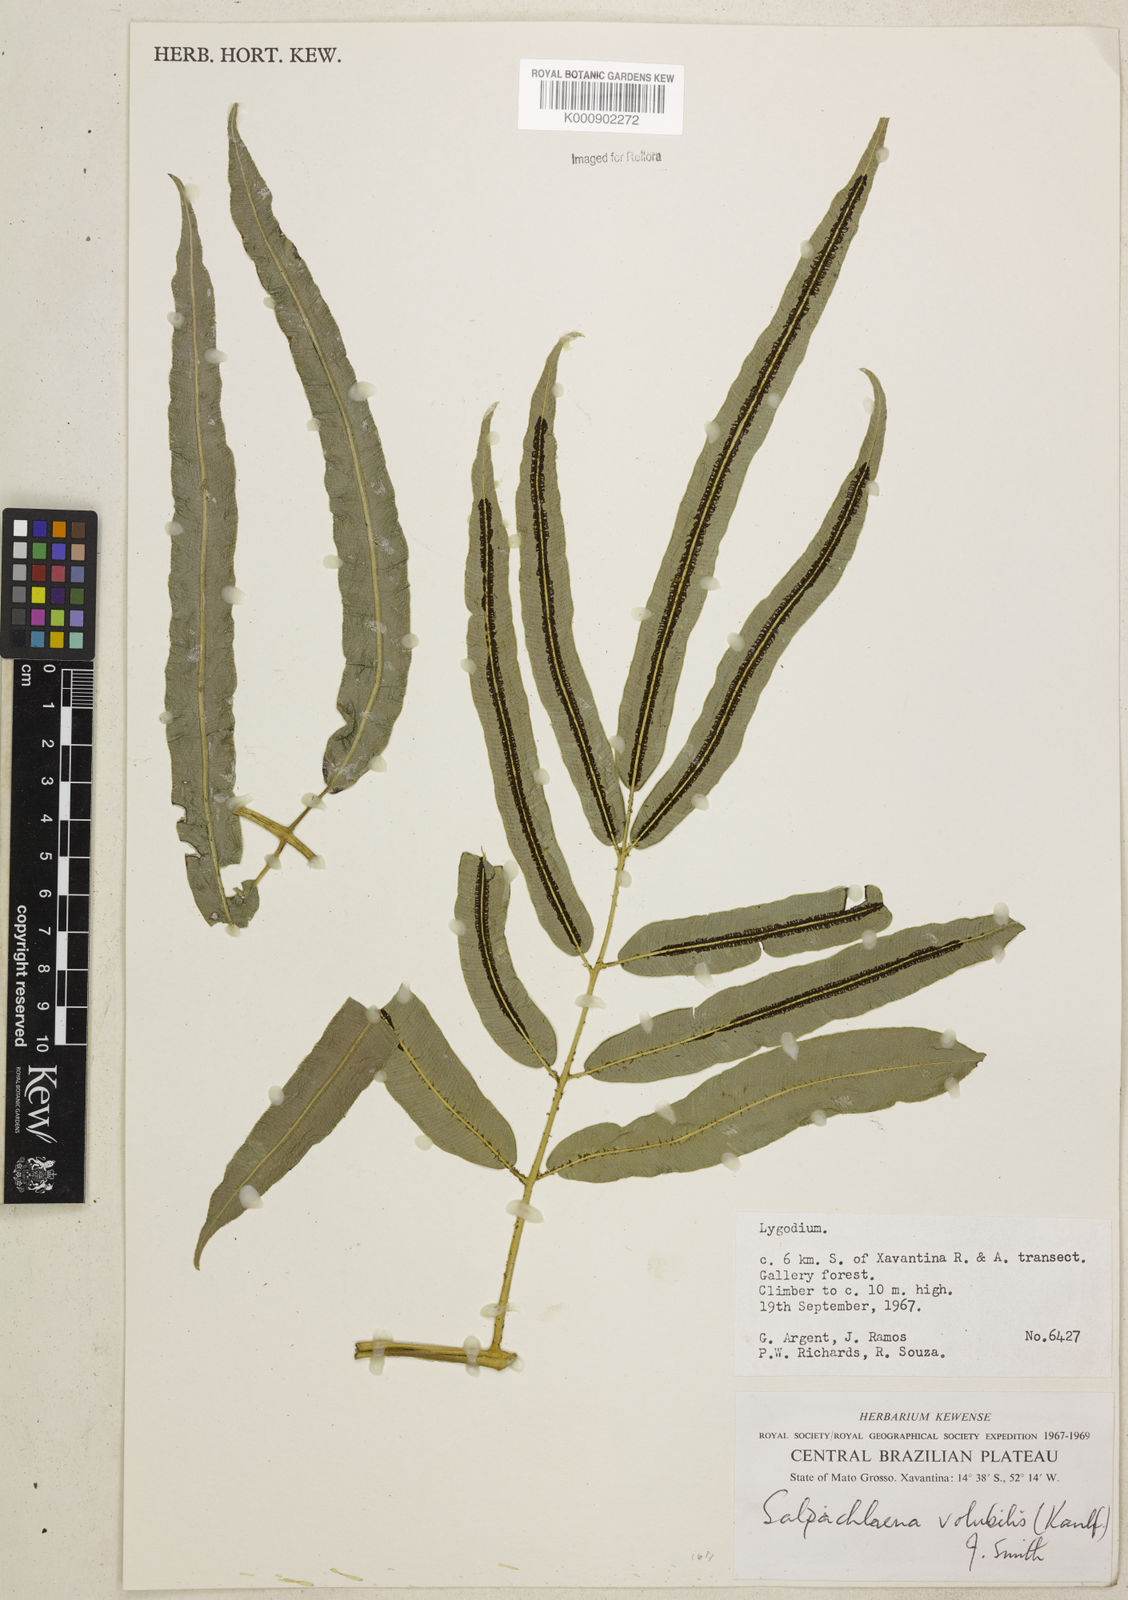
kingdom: Plantae
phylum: Tracheophyta
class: Polypodiopsida
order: Polypodiales
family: Blechnaceae
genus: Salpichlaena
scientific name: Salpichlaena volubilis
